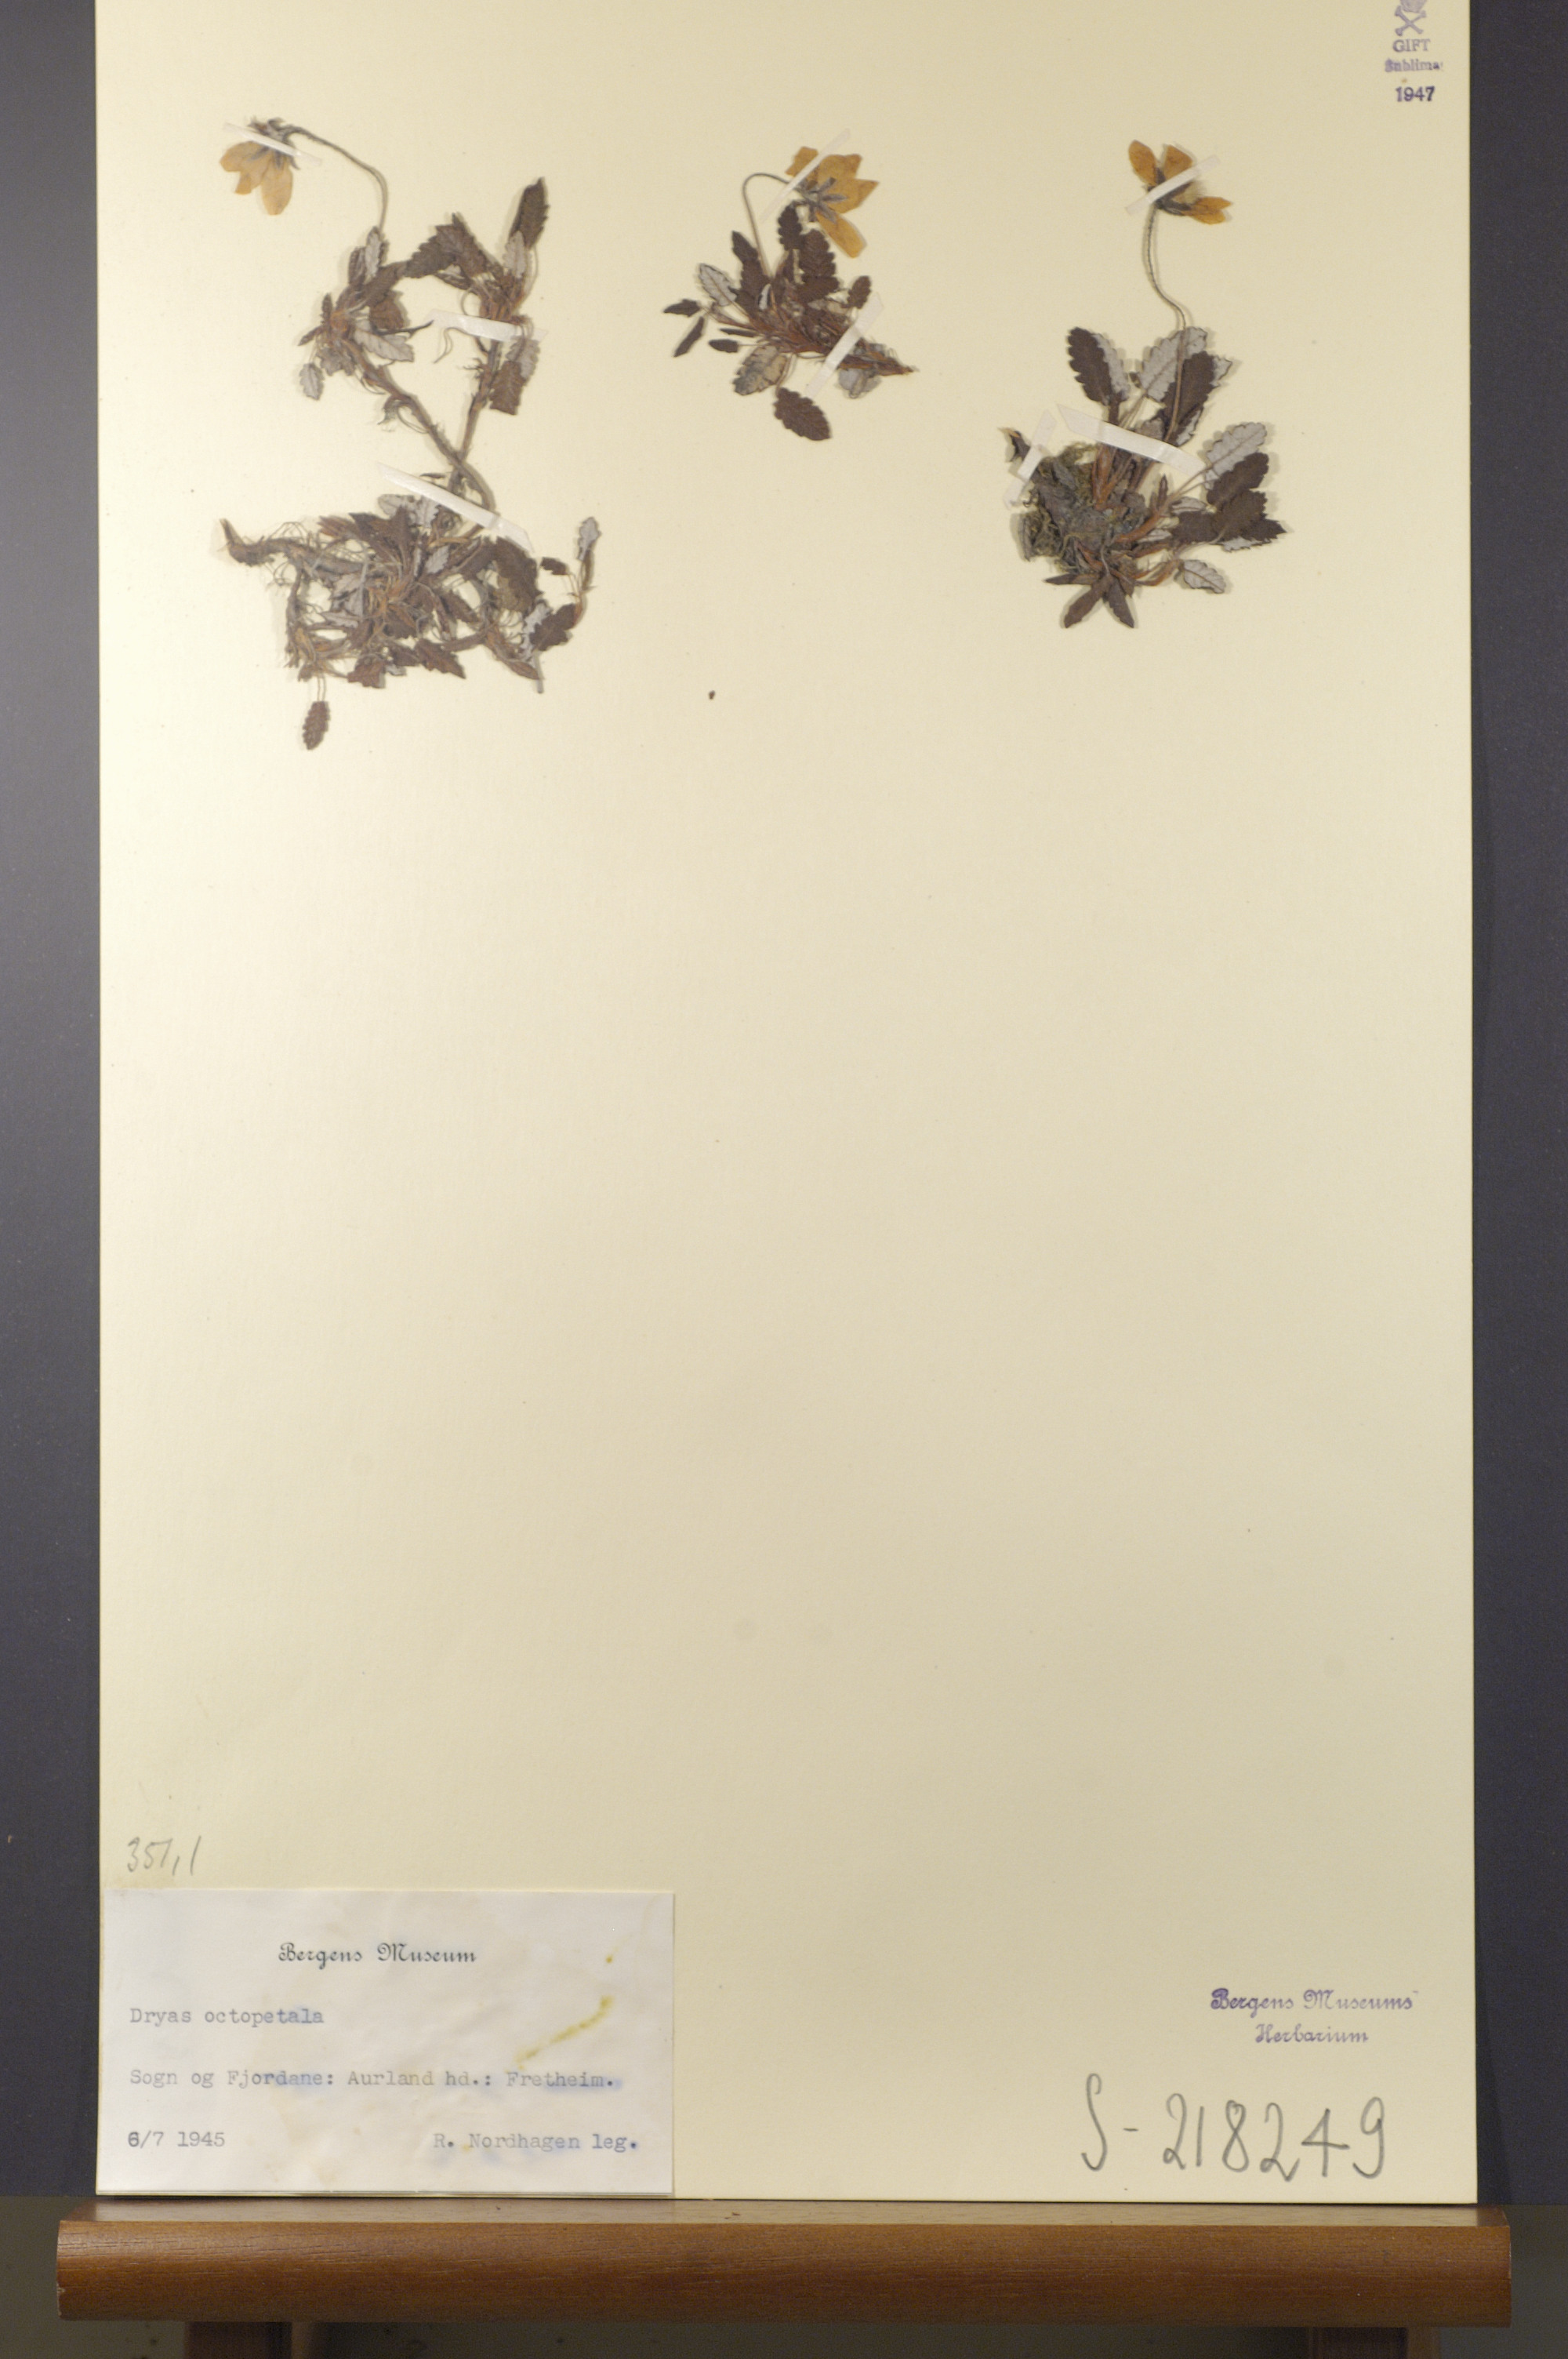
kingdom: Plantae
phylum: Tracheophyta
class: Magnoliopsida
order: Rosales
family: Rosaceae
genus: Dryas
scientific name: Dryas octopetala
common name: Eight-petal mountain-avens
